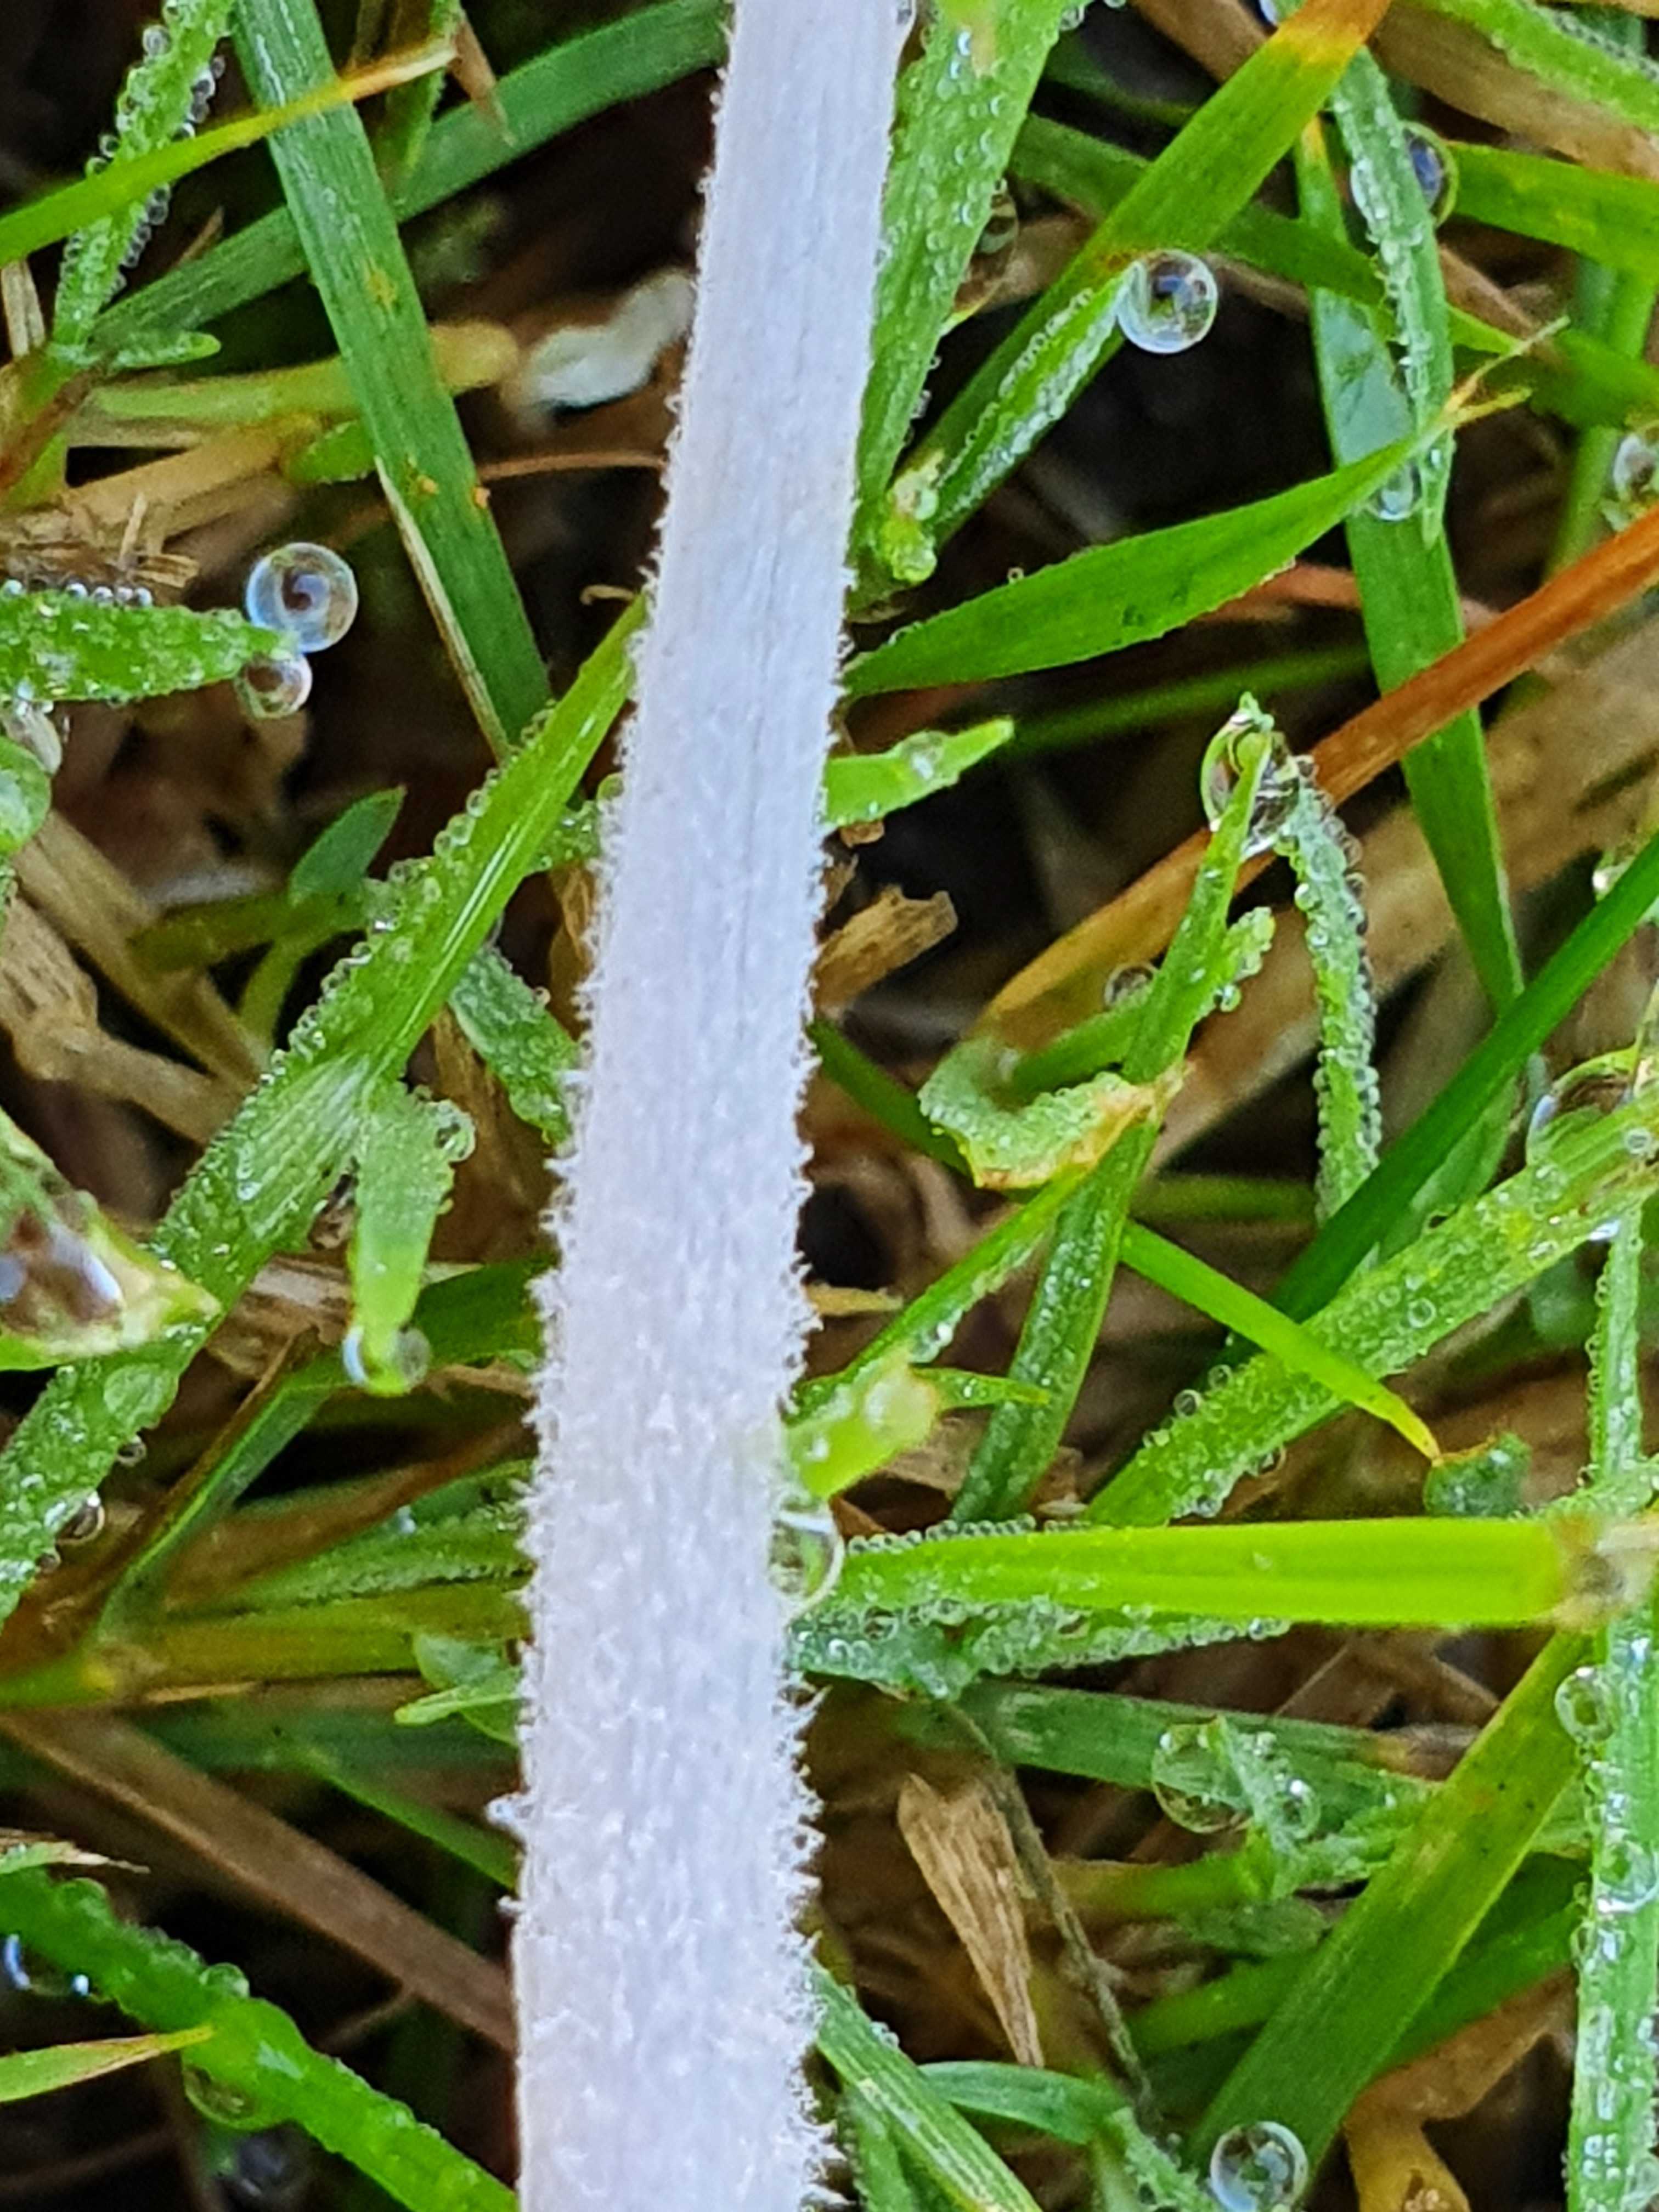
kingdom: Fungi
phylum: Basidiomycota
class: Agaricomycetes
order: Agaricales
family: Psathyrellaceae
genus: Coprinopsis
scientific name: Coprinopsis lagopus
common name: dunstokket blækhat
